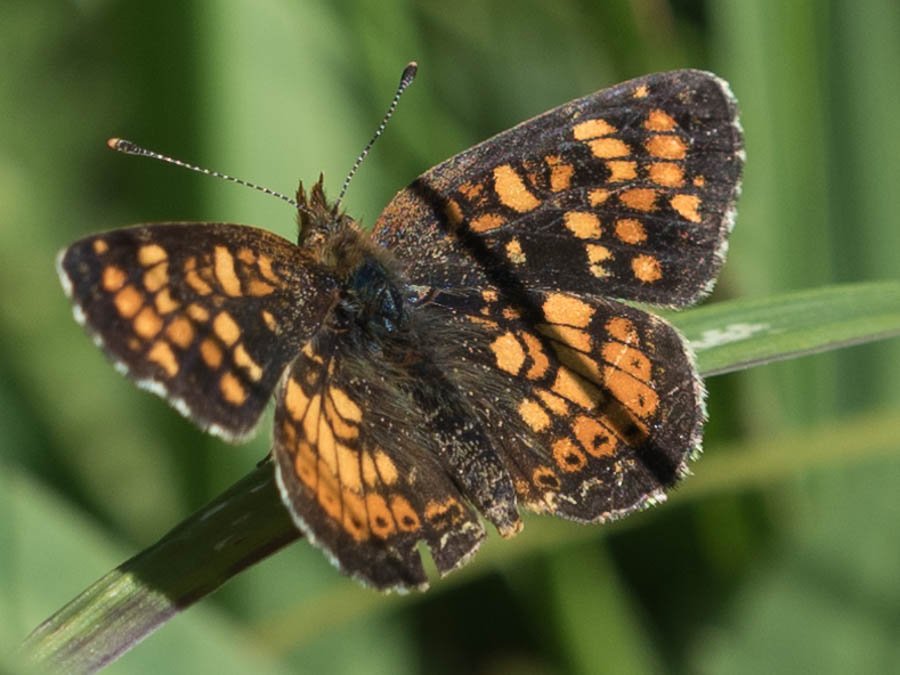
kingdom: Animalia
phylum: Arthropoda
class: Insecta
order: Lepidoptera
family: Nymphalidae
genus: Phyciodes
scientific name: Phyciodes tharos
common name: Field Crescent
